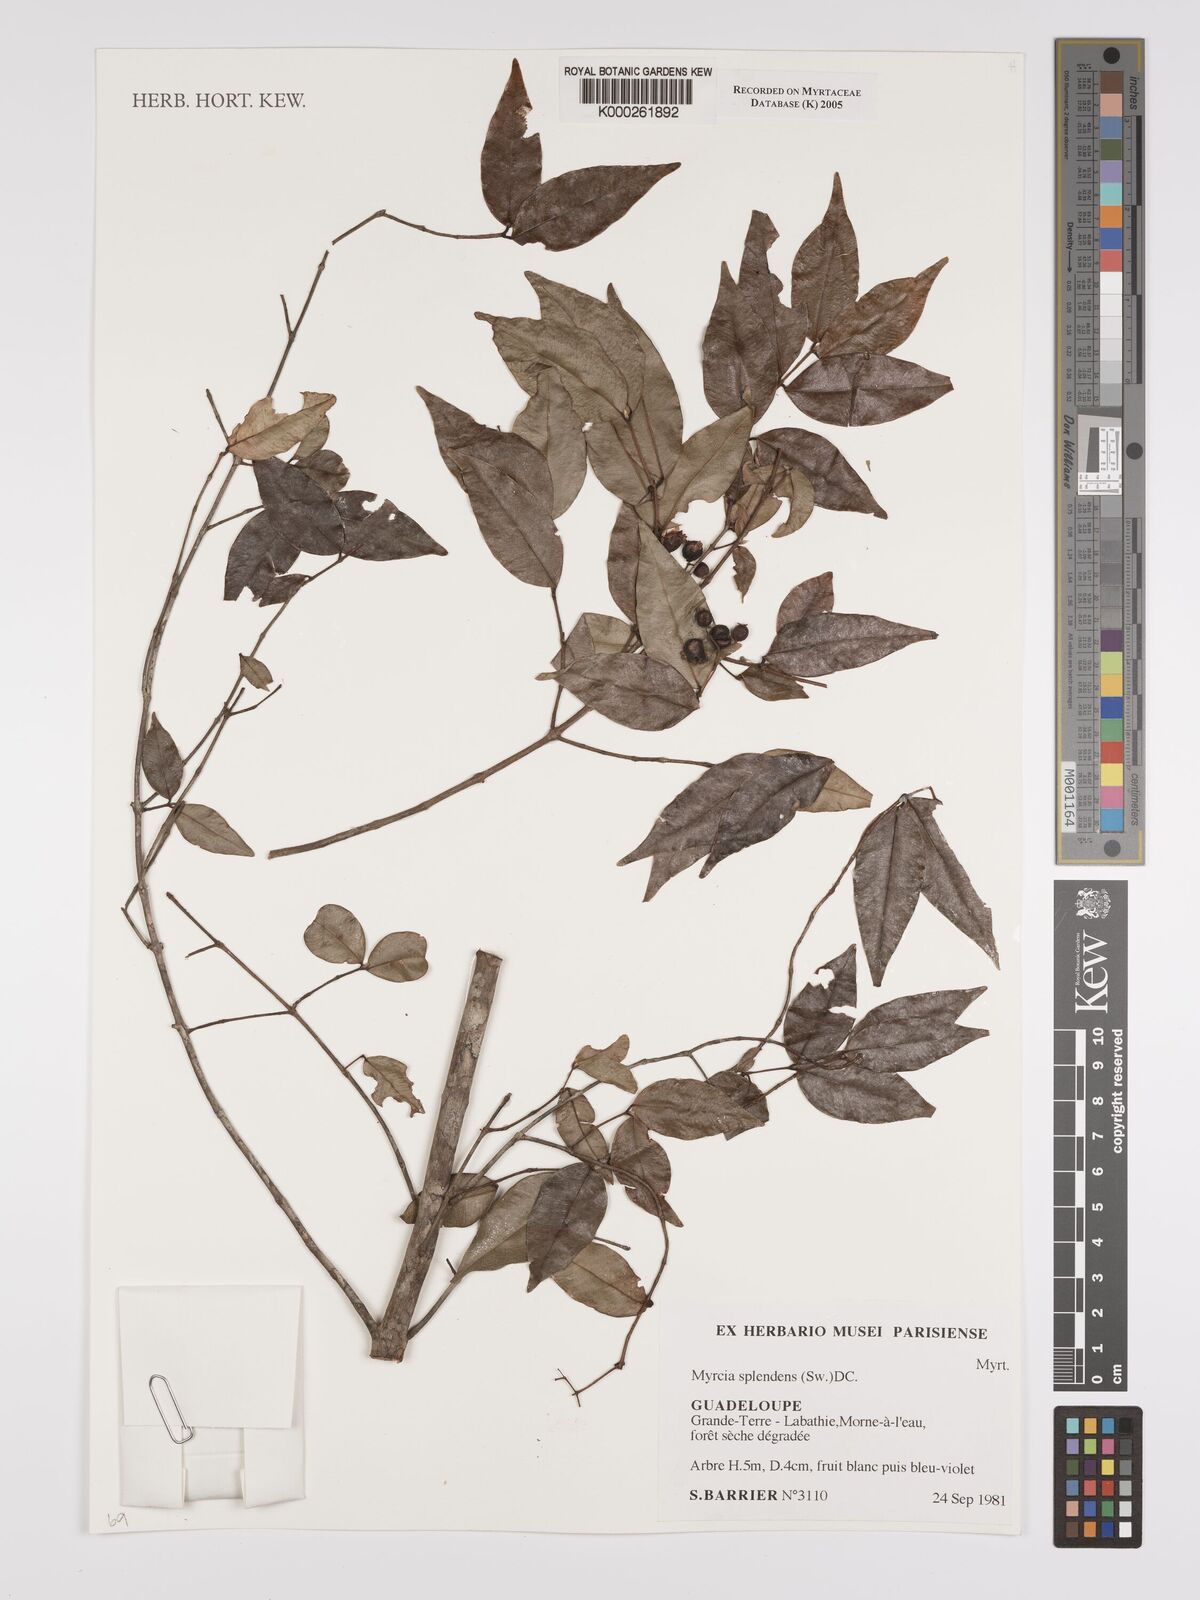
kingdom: Plantae
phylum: Tracheophyta
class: Magnoliopsida
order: Myrtales
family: Myrtaceae
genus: Myrcia
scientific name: Myrcia splendens
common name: Surinam cherry
